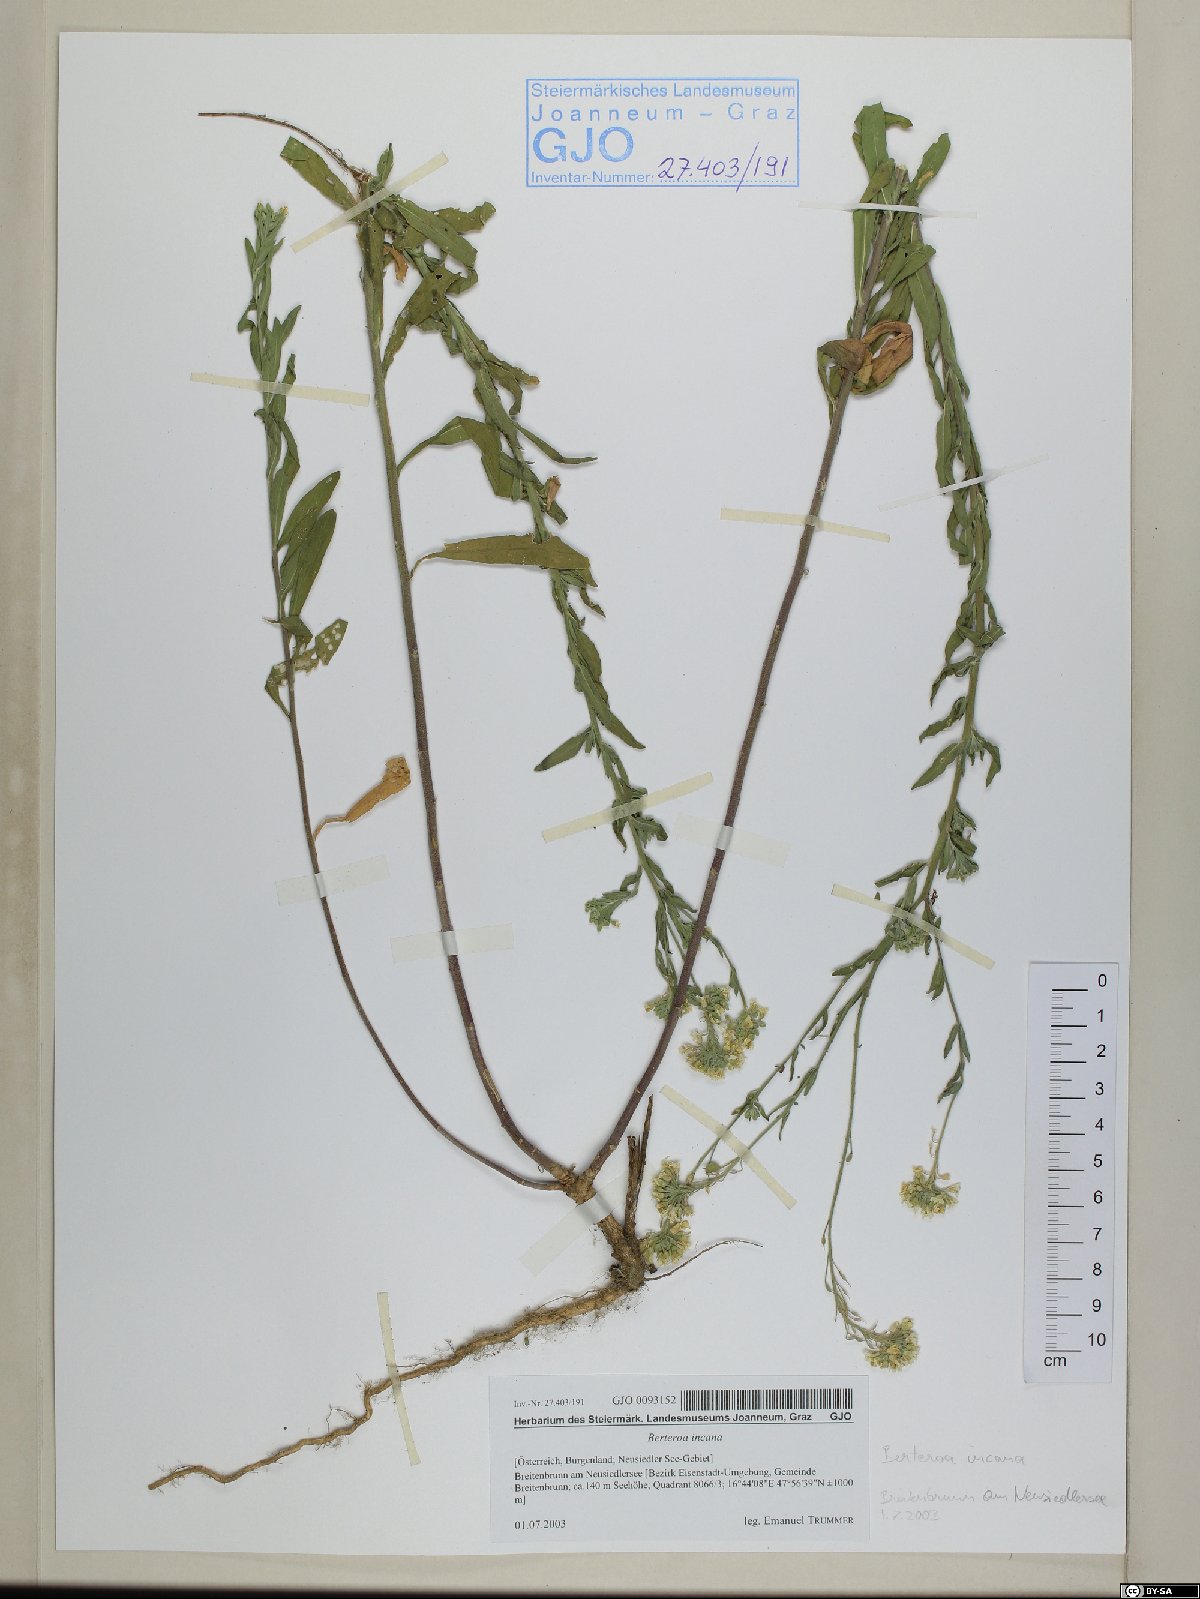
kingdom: Plantae
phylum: Tracheophyta
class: Magnoliopsida
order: Brassicales
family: Brassicaceae
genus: Berteroa
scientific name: Berteroa incana
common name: Hoary alison
